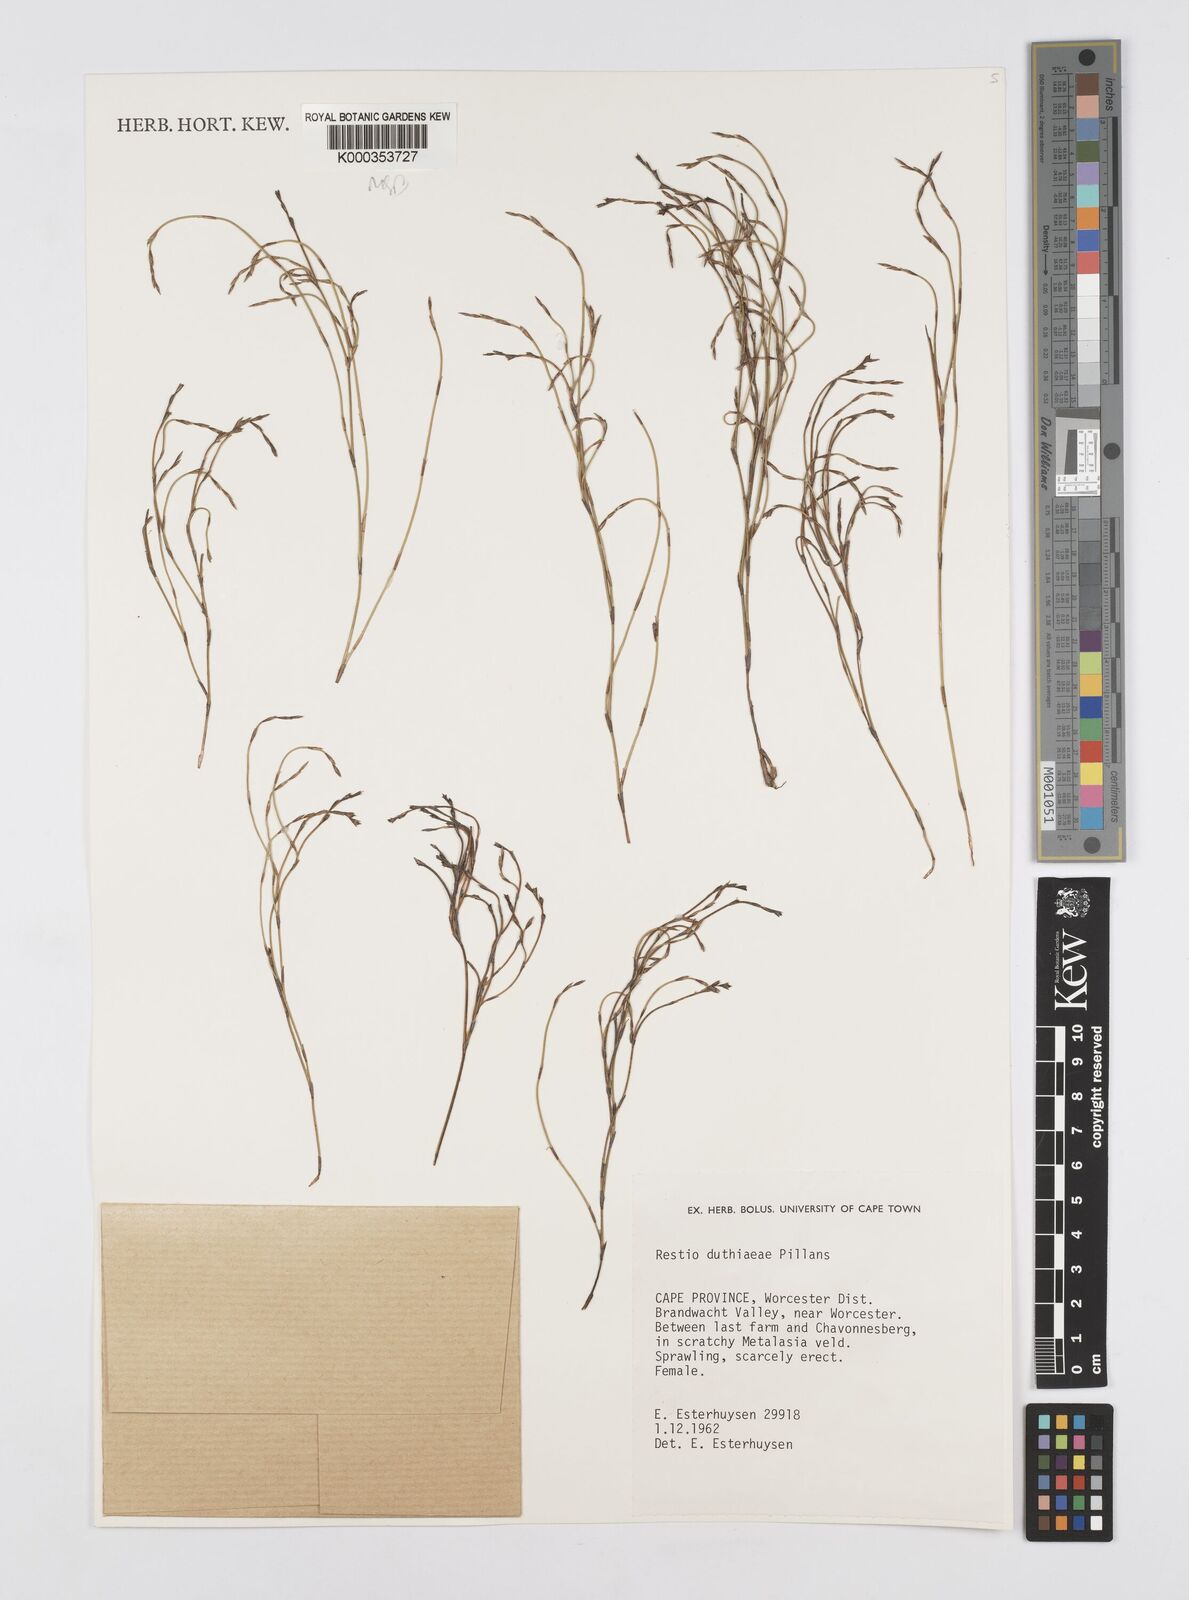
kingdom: Plantae
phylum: Tracheophyta
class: Liliopsida
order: Poales
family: Restionaceae
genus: Restio
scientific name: Restio duthieae
